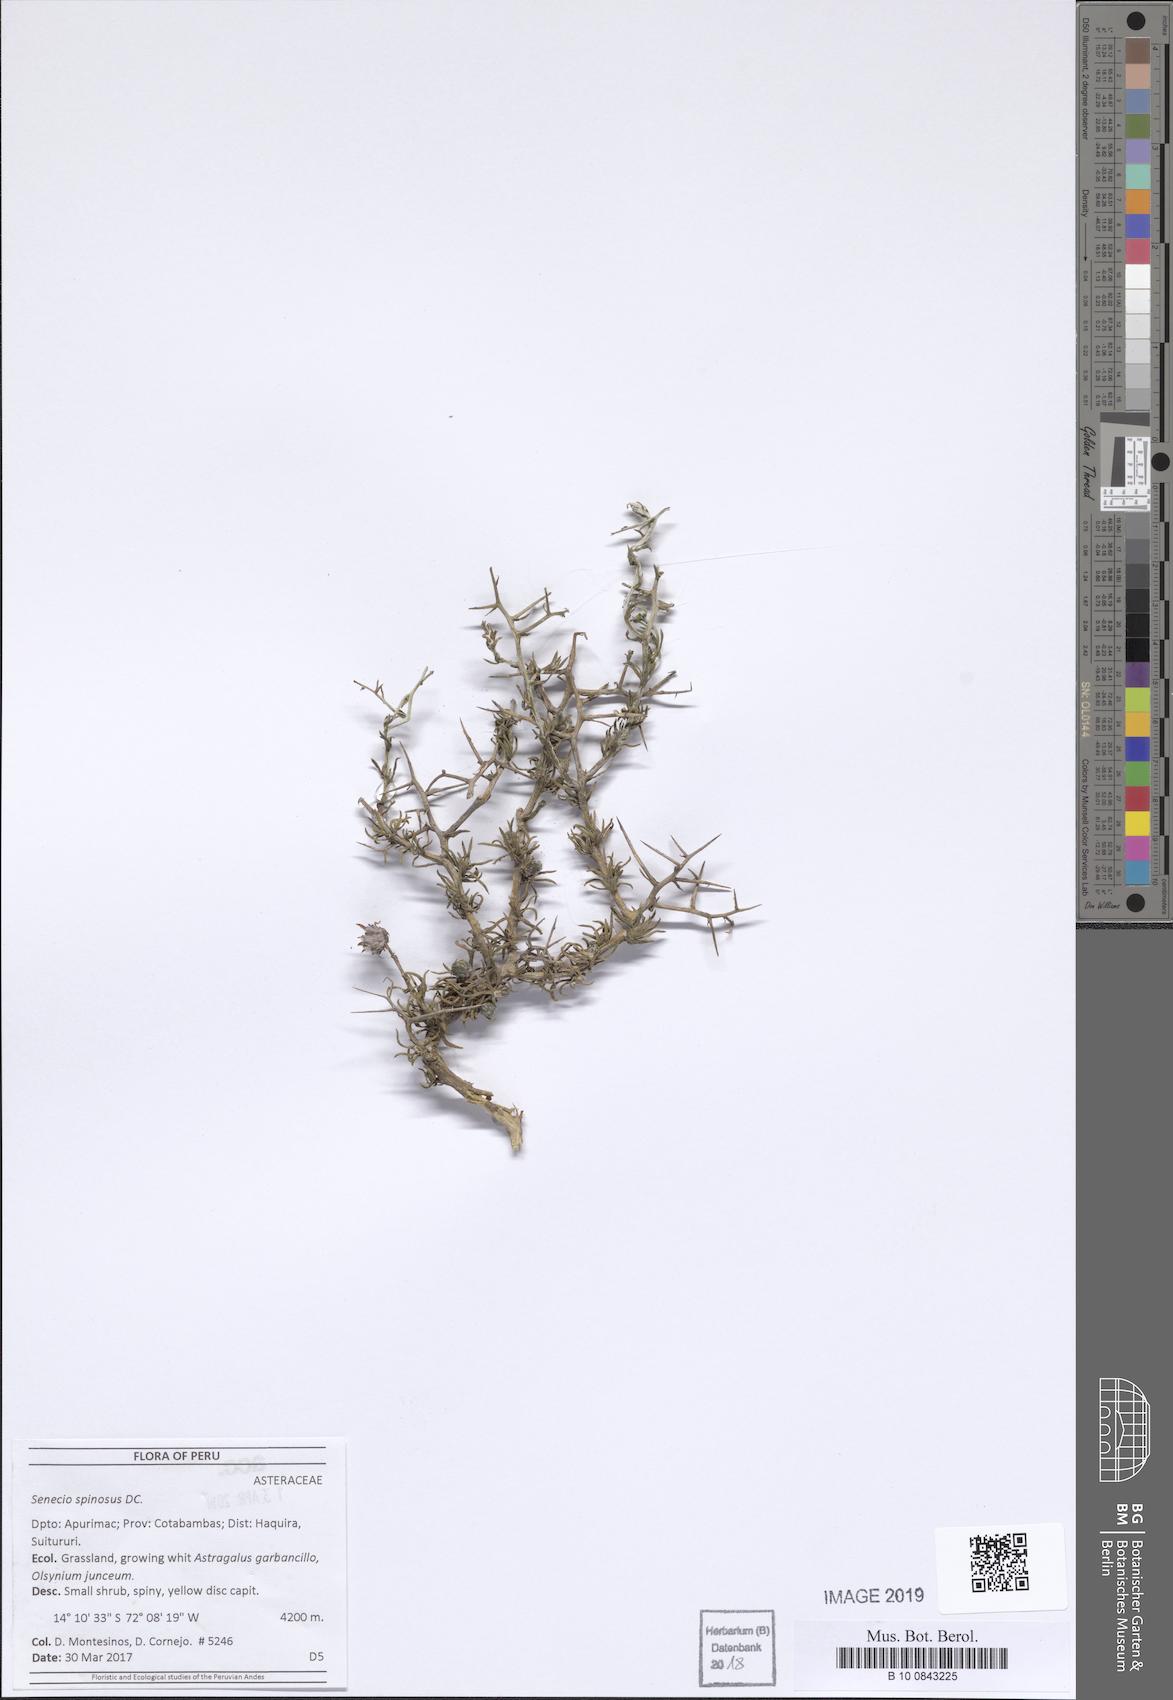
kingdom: Plantae
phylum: Tracheophyta
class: Magnoliopsida
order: Asterales
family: Asteraceae
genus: Senecio
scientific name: Senecio spinosus
